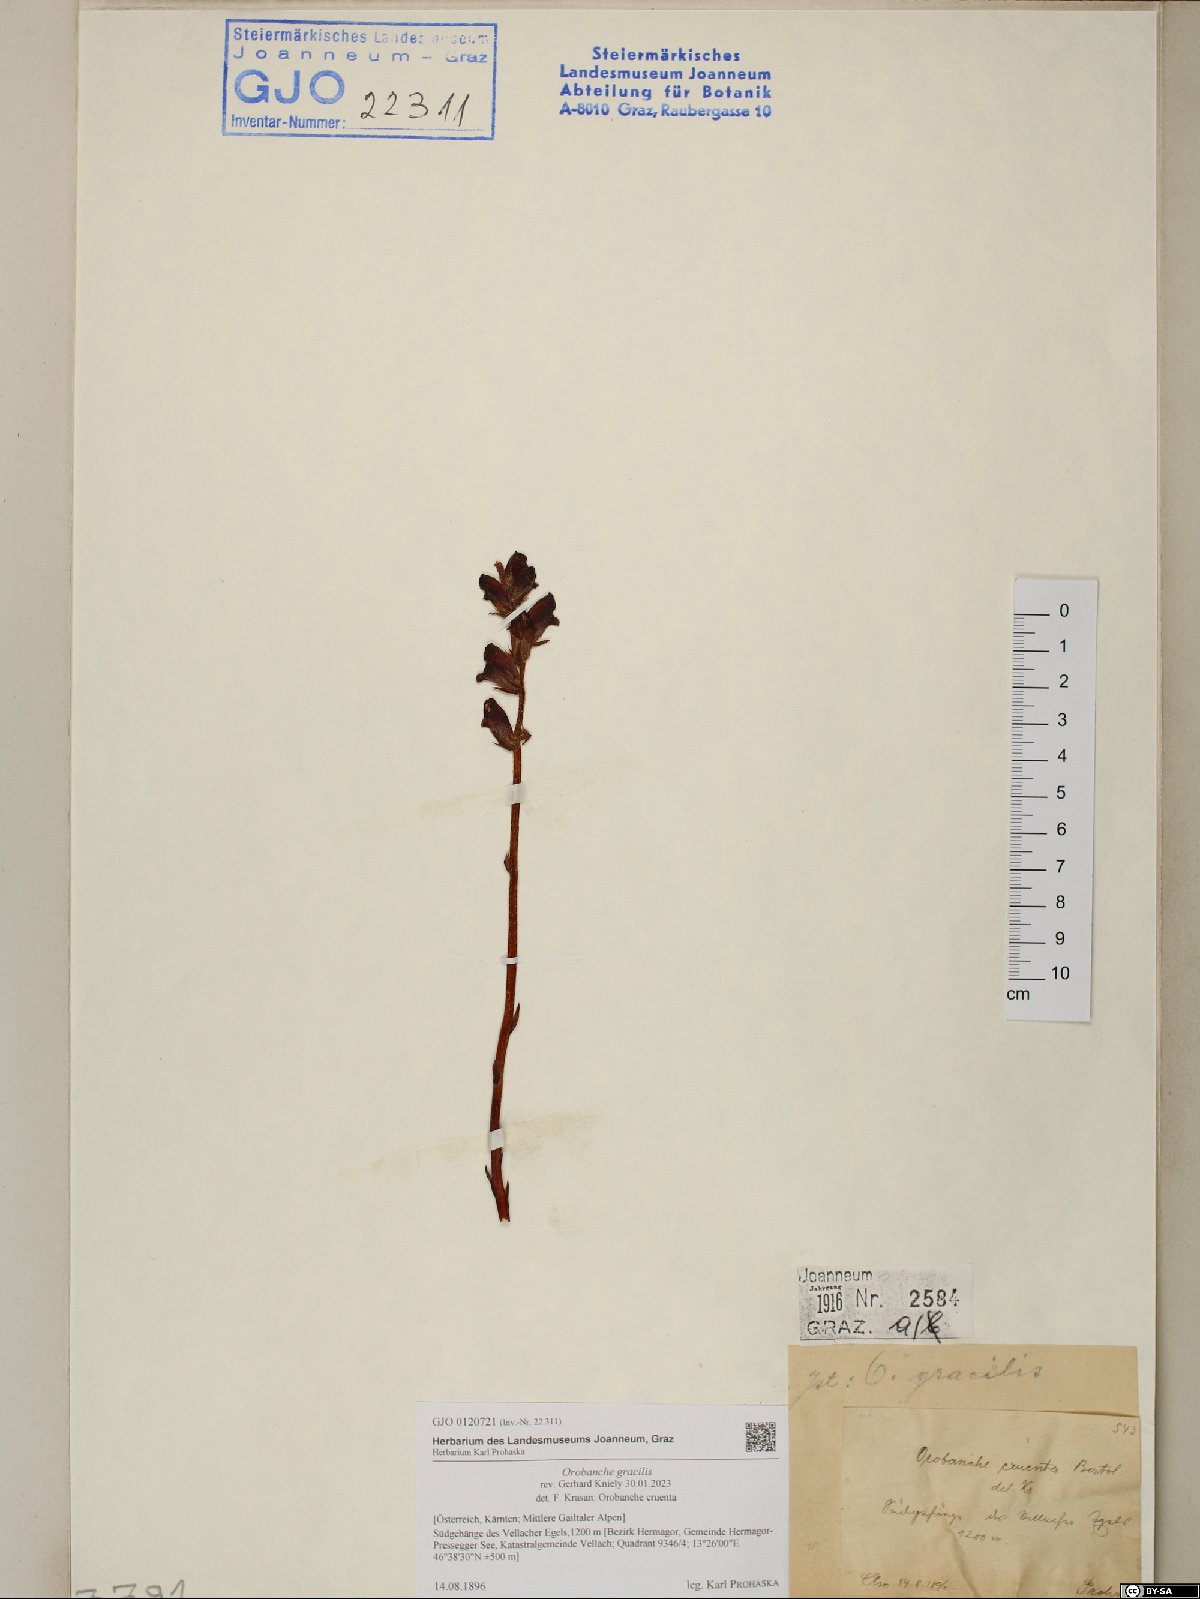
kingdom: Plantae
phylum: Tracheophyta
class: Magnoliopsida
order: Lamiales
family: Orobanchaceae
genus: Orobanche
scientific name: Orobanche gracilis
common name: Slender broomrape
